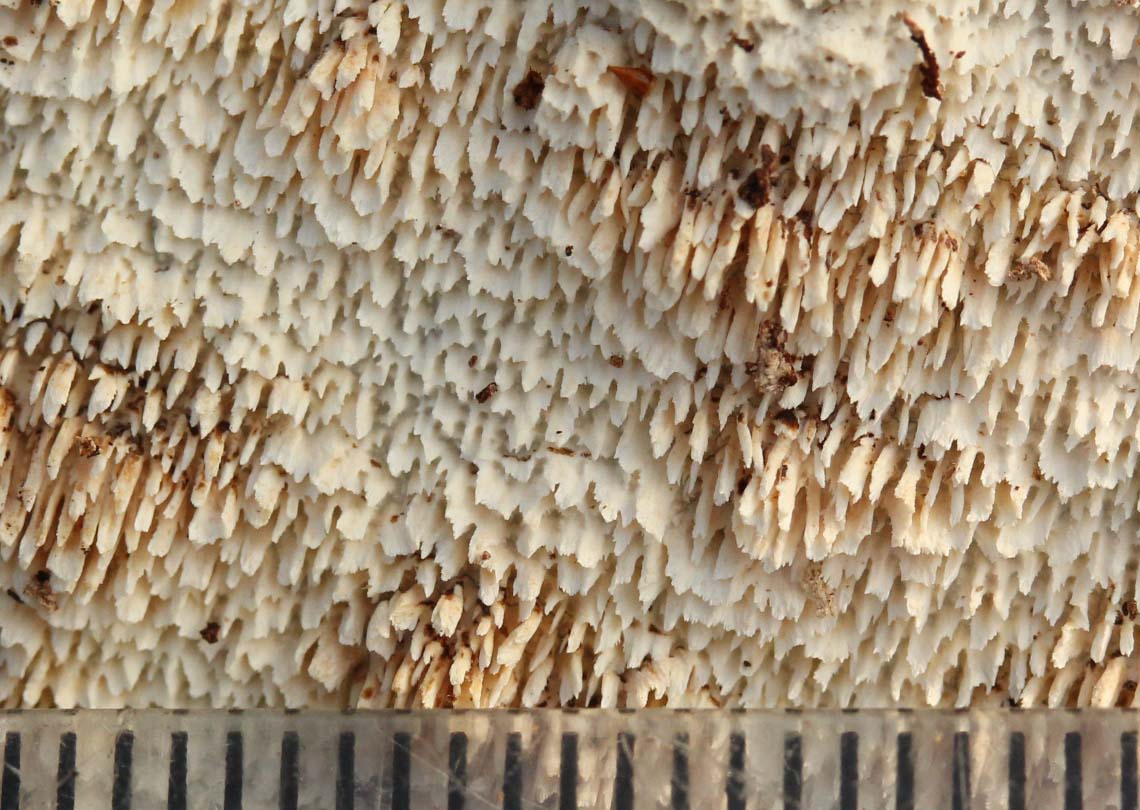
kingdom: Fungi
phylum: Basidiomycota
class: Agaricomycetes
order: Hymenochaetales
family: Schizoporaceae
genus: Xylodon
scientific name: Xylodon subtropicus
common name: labyrint-tandsvamp
